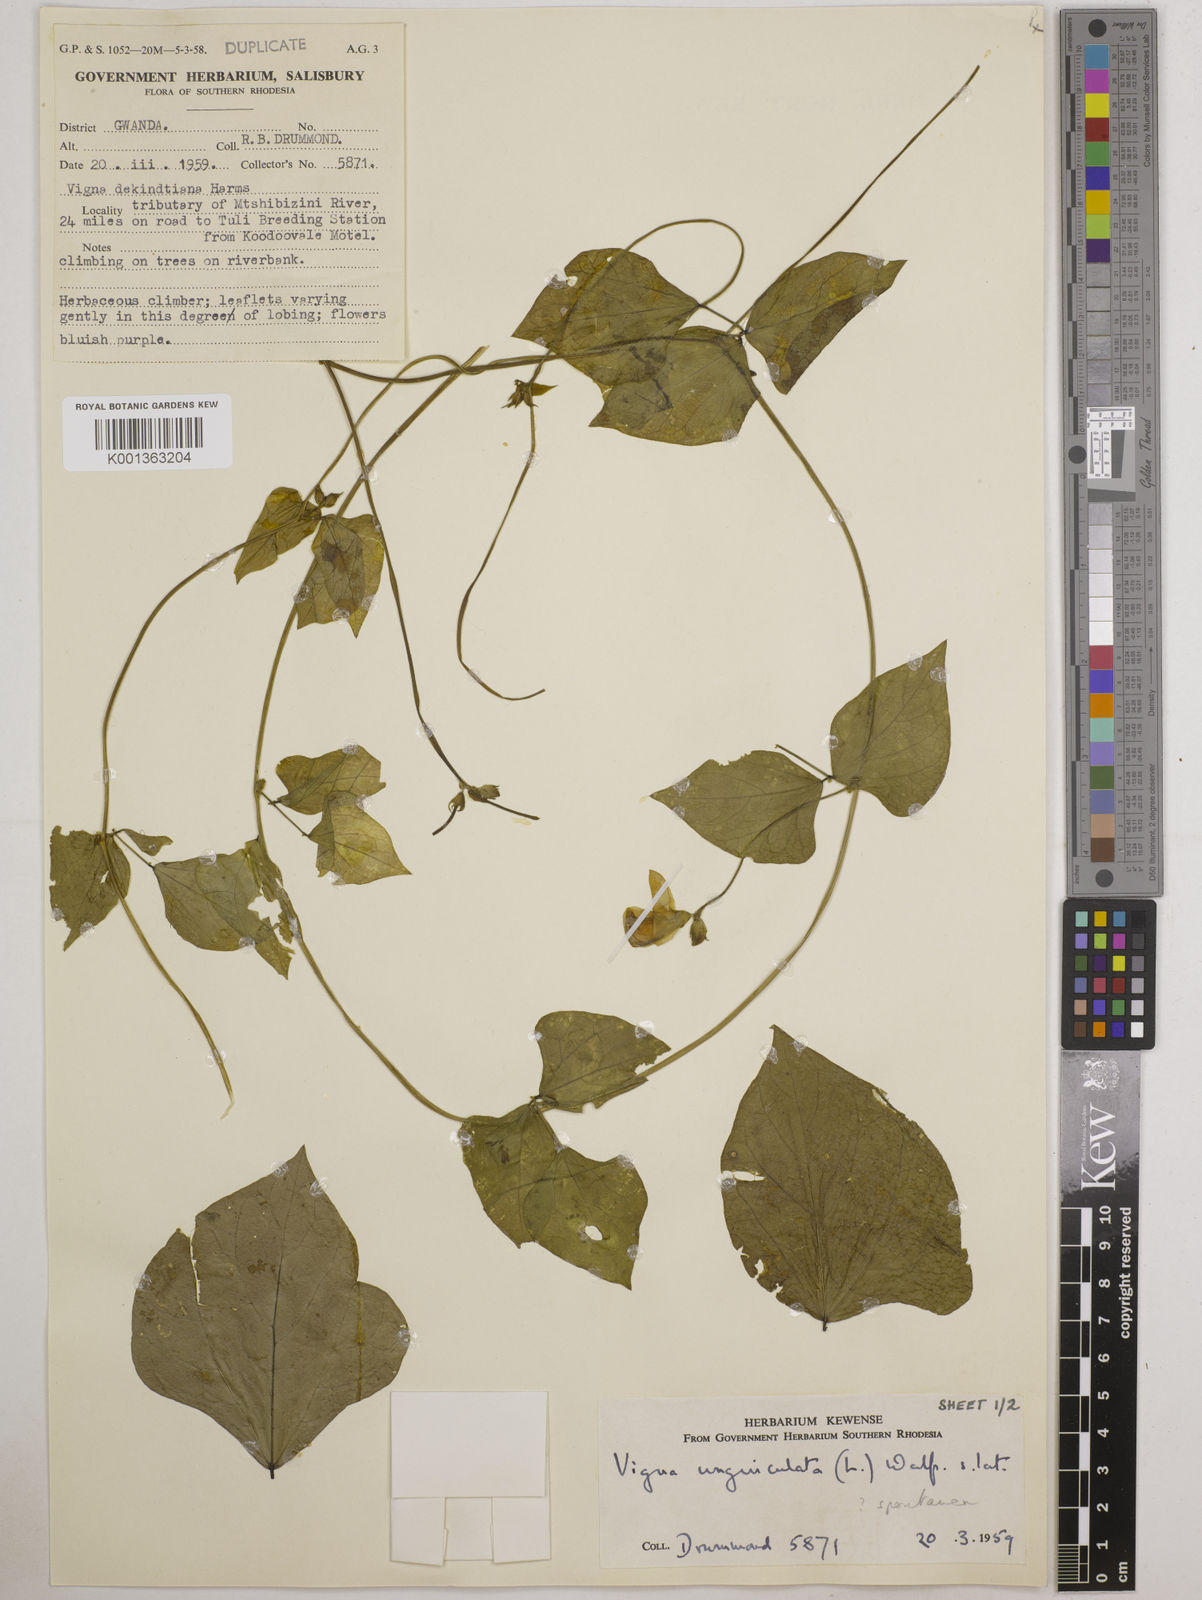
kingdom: Plantae
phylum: Tracheophyta
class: Magnoliopsida
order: Fabales
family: Fabaceae
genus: Vigna
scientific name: Vigna unguiculata
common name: Cowpea
